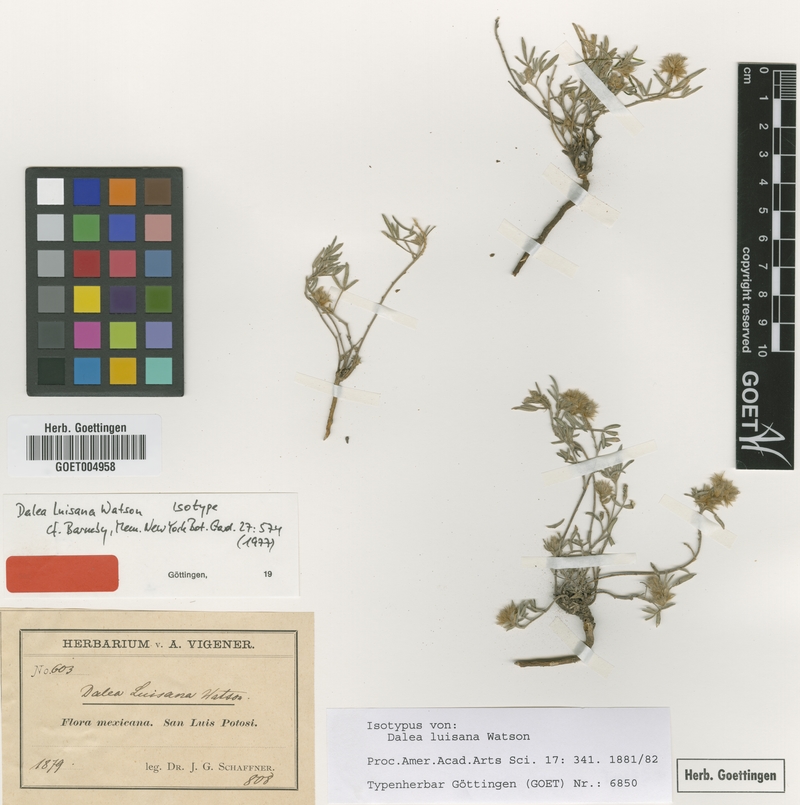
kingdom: Plantae
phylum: Tracheophyta
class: Magnoliopsida
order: Fabales
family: Fabaceae
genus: Dalea
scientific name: Dalea luisana
